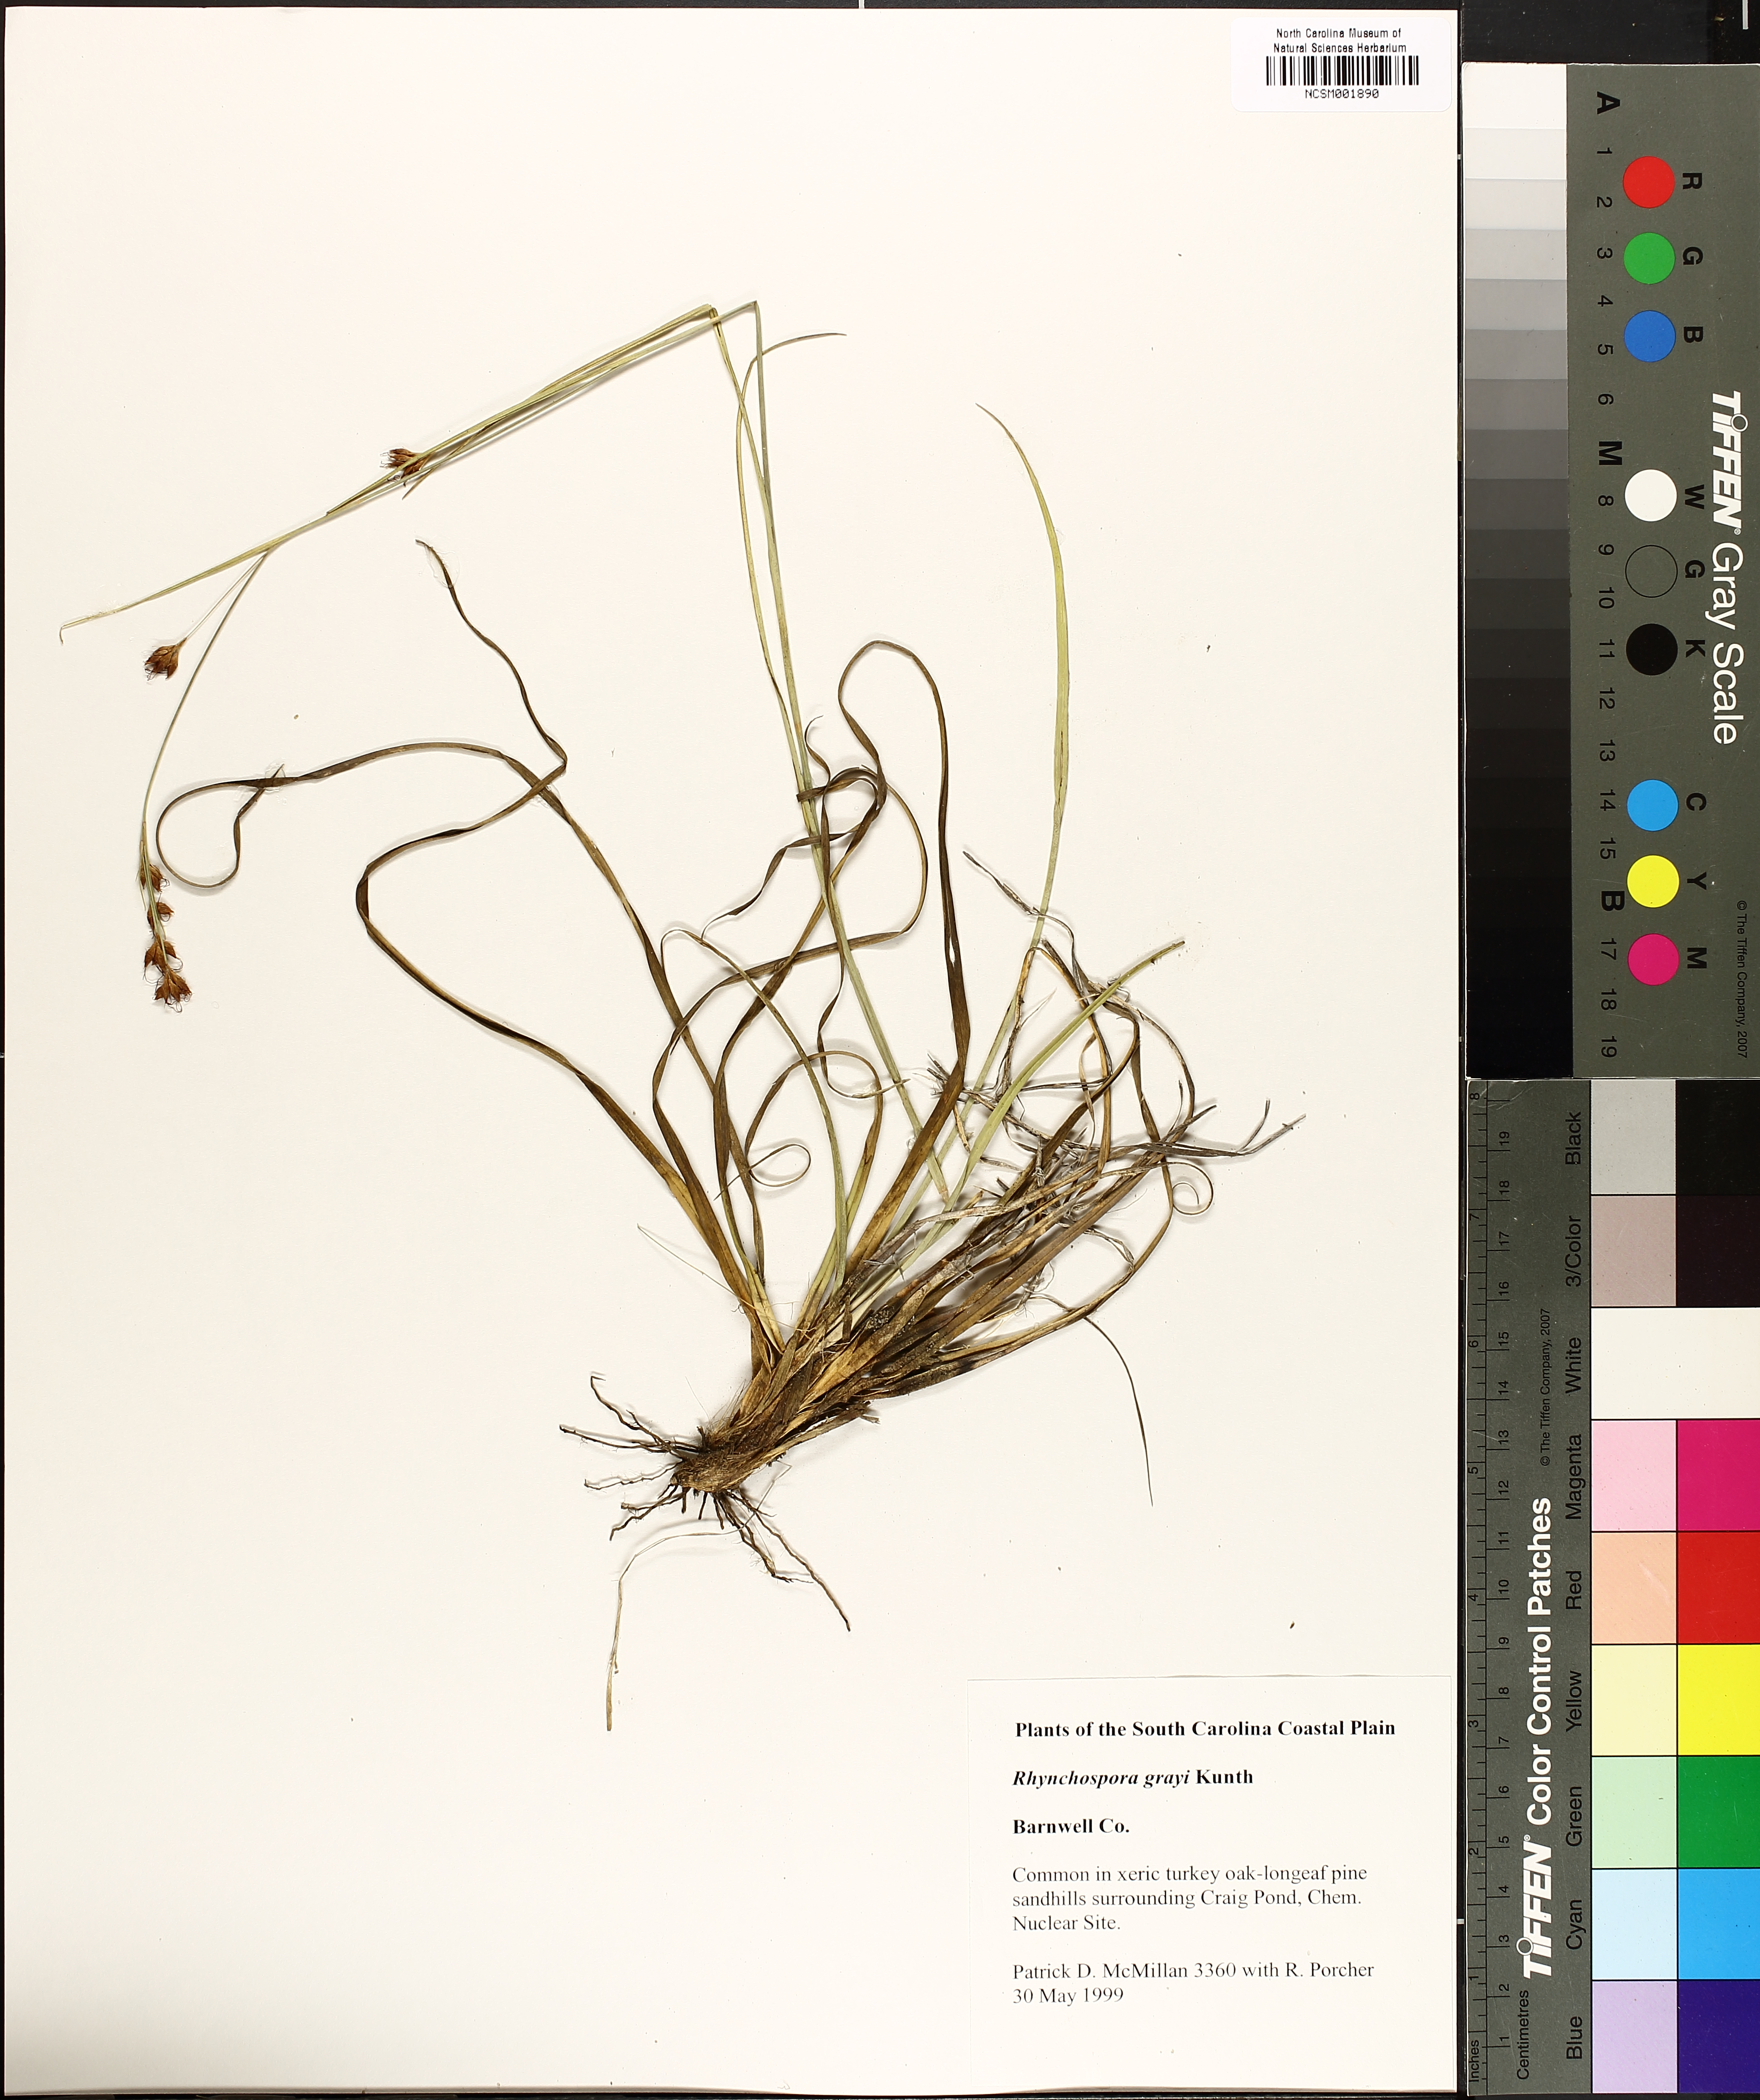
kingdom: Plantae
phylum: Tracheophyta
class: Liliopsida
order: Poales
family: Cyperaceae
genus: Rhynchospora
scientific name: Rhynchospora grayi
